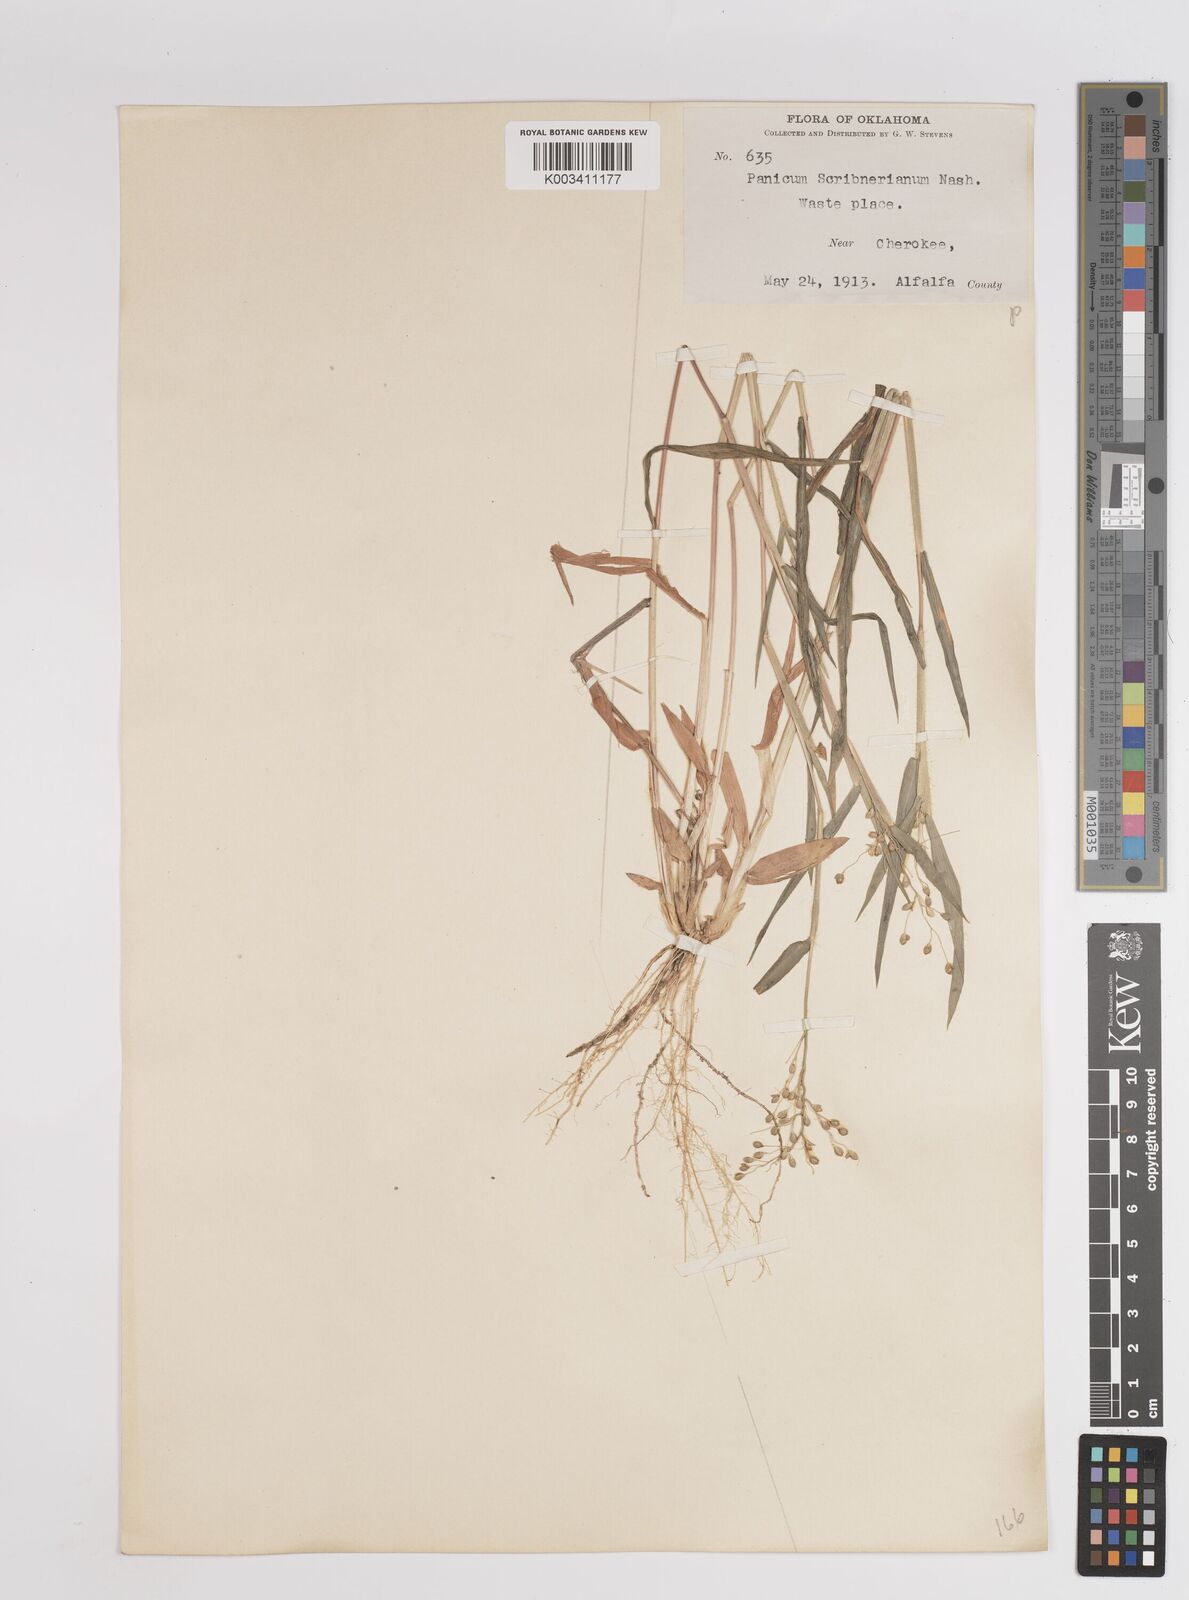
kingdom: Plantae
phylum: Tracheophyta
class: Liliopsida
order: Poales
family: Poaceae
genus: Dichanthelium
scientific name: Dichanthelium scribnerianum
